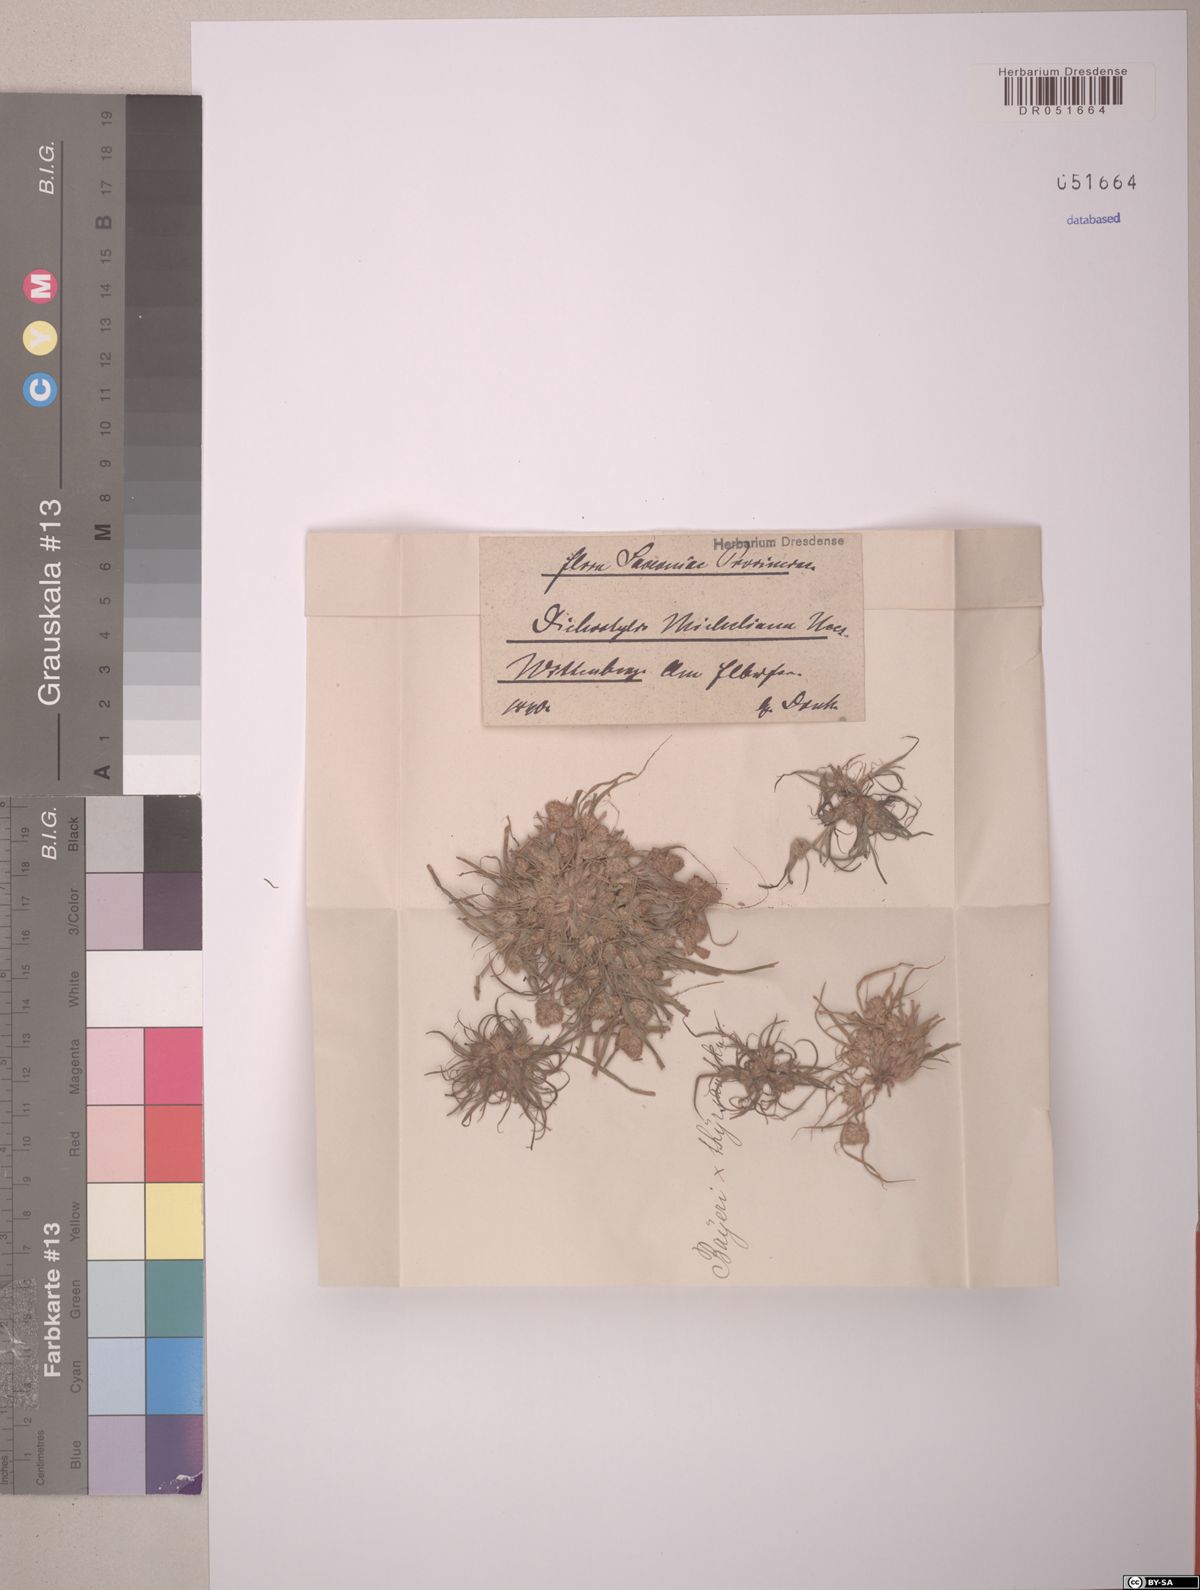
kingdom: Plantae
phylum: Tracheophyta
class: Liliopsida
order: Poales
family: Cyperaceae
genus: Cyperus
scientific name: Cyperus michelianus
